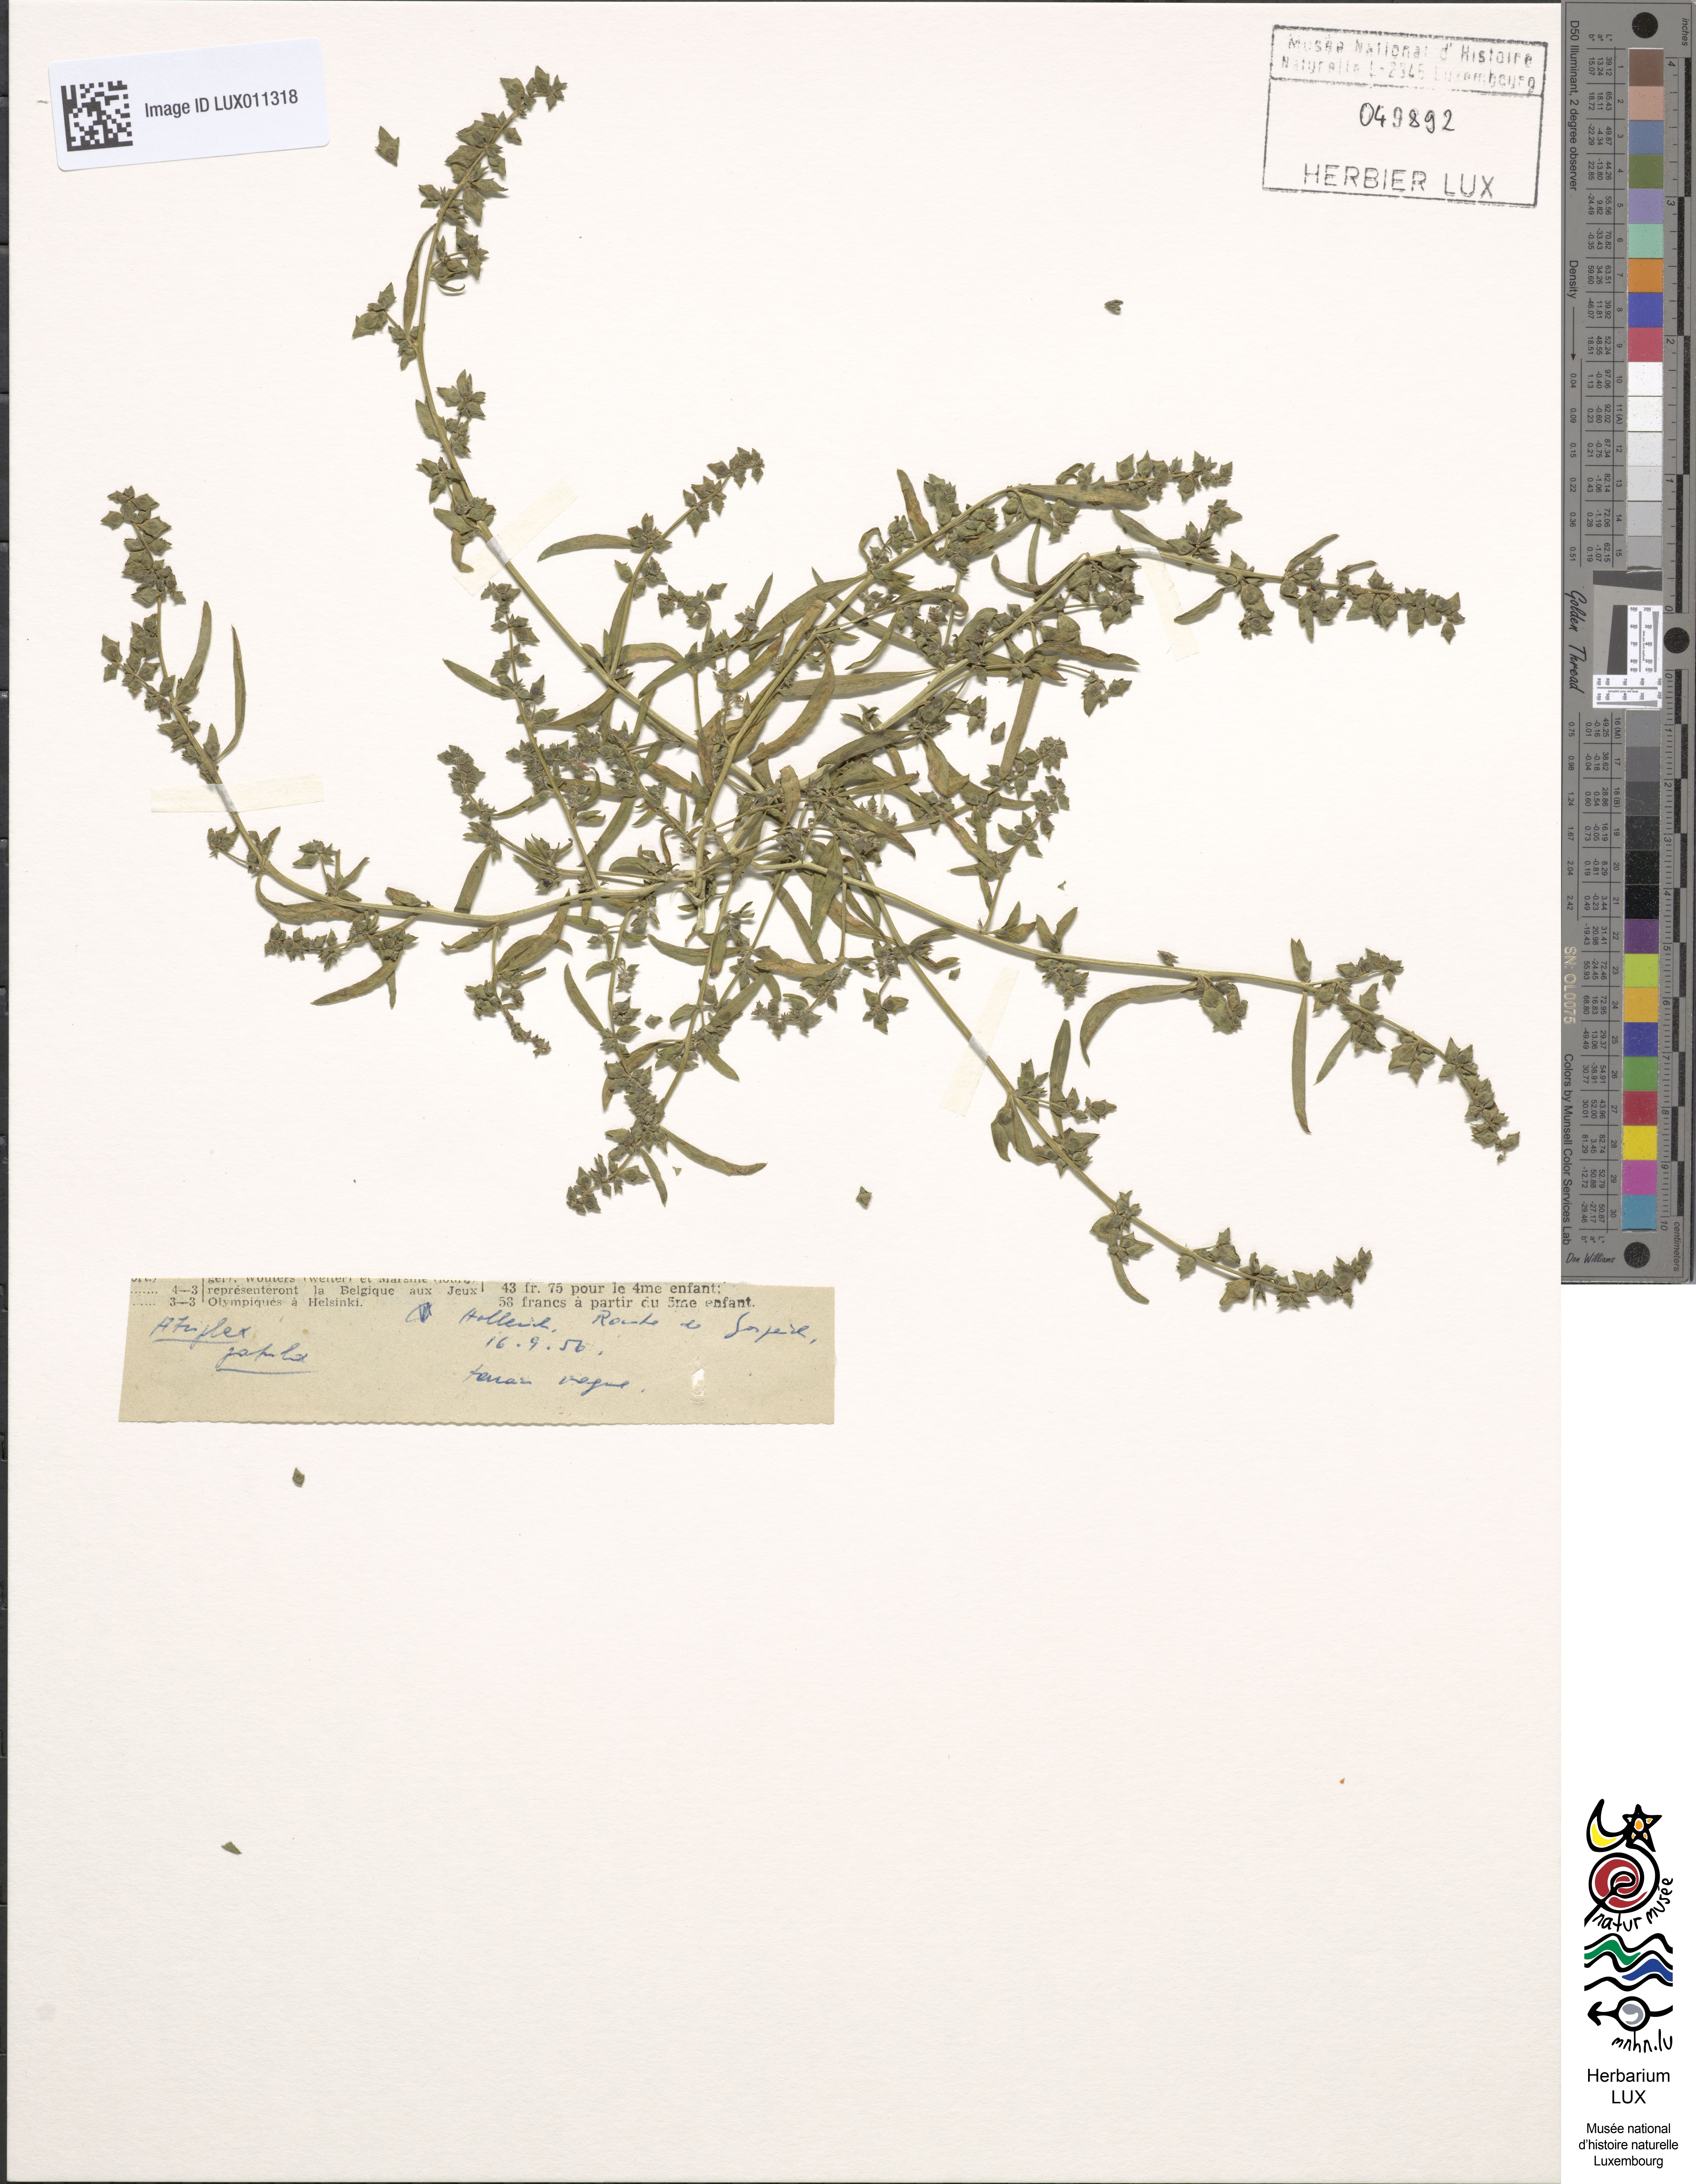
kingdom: Plantae
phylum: Tracheophyta
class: Magnoliopsida
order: Caryophyllales
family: Amaranthaceae
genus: Atriplex
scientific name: Atriplex patula
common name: Common orache
